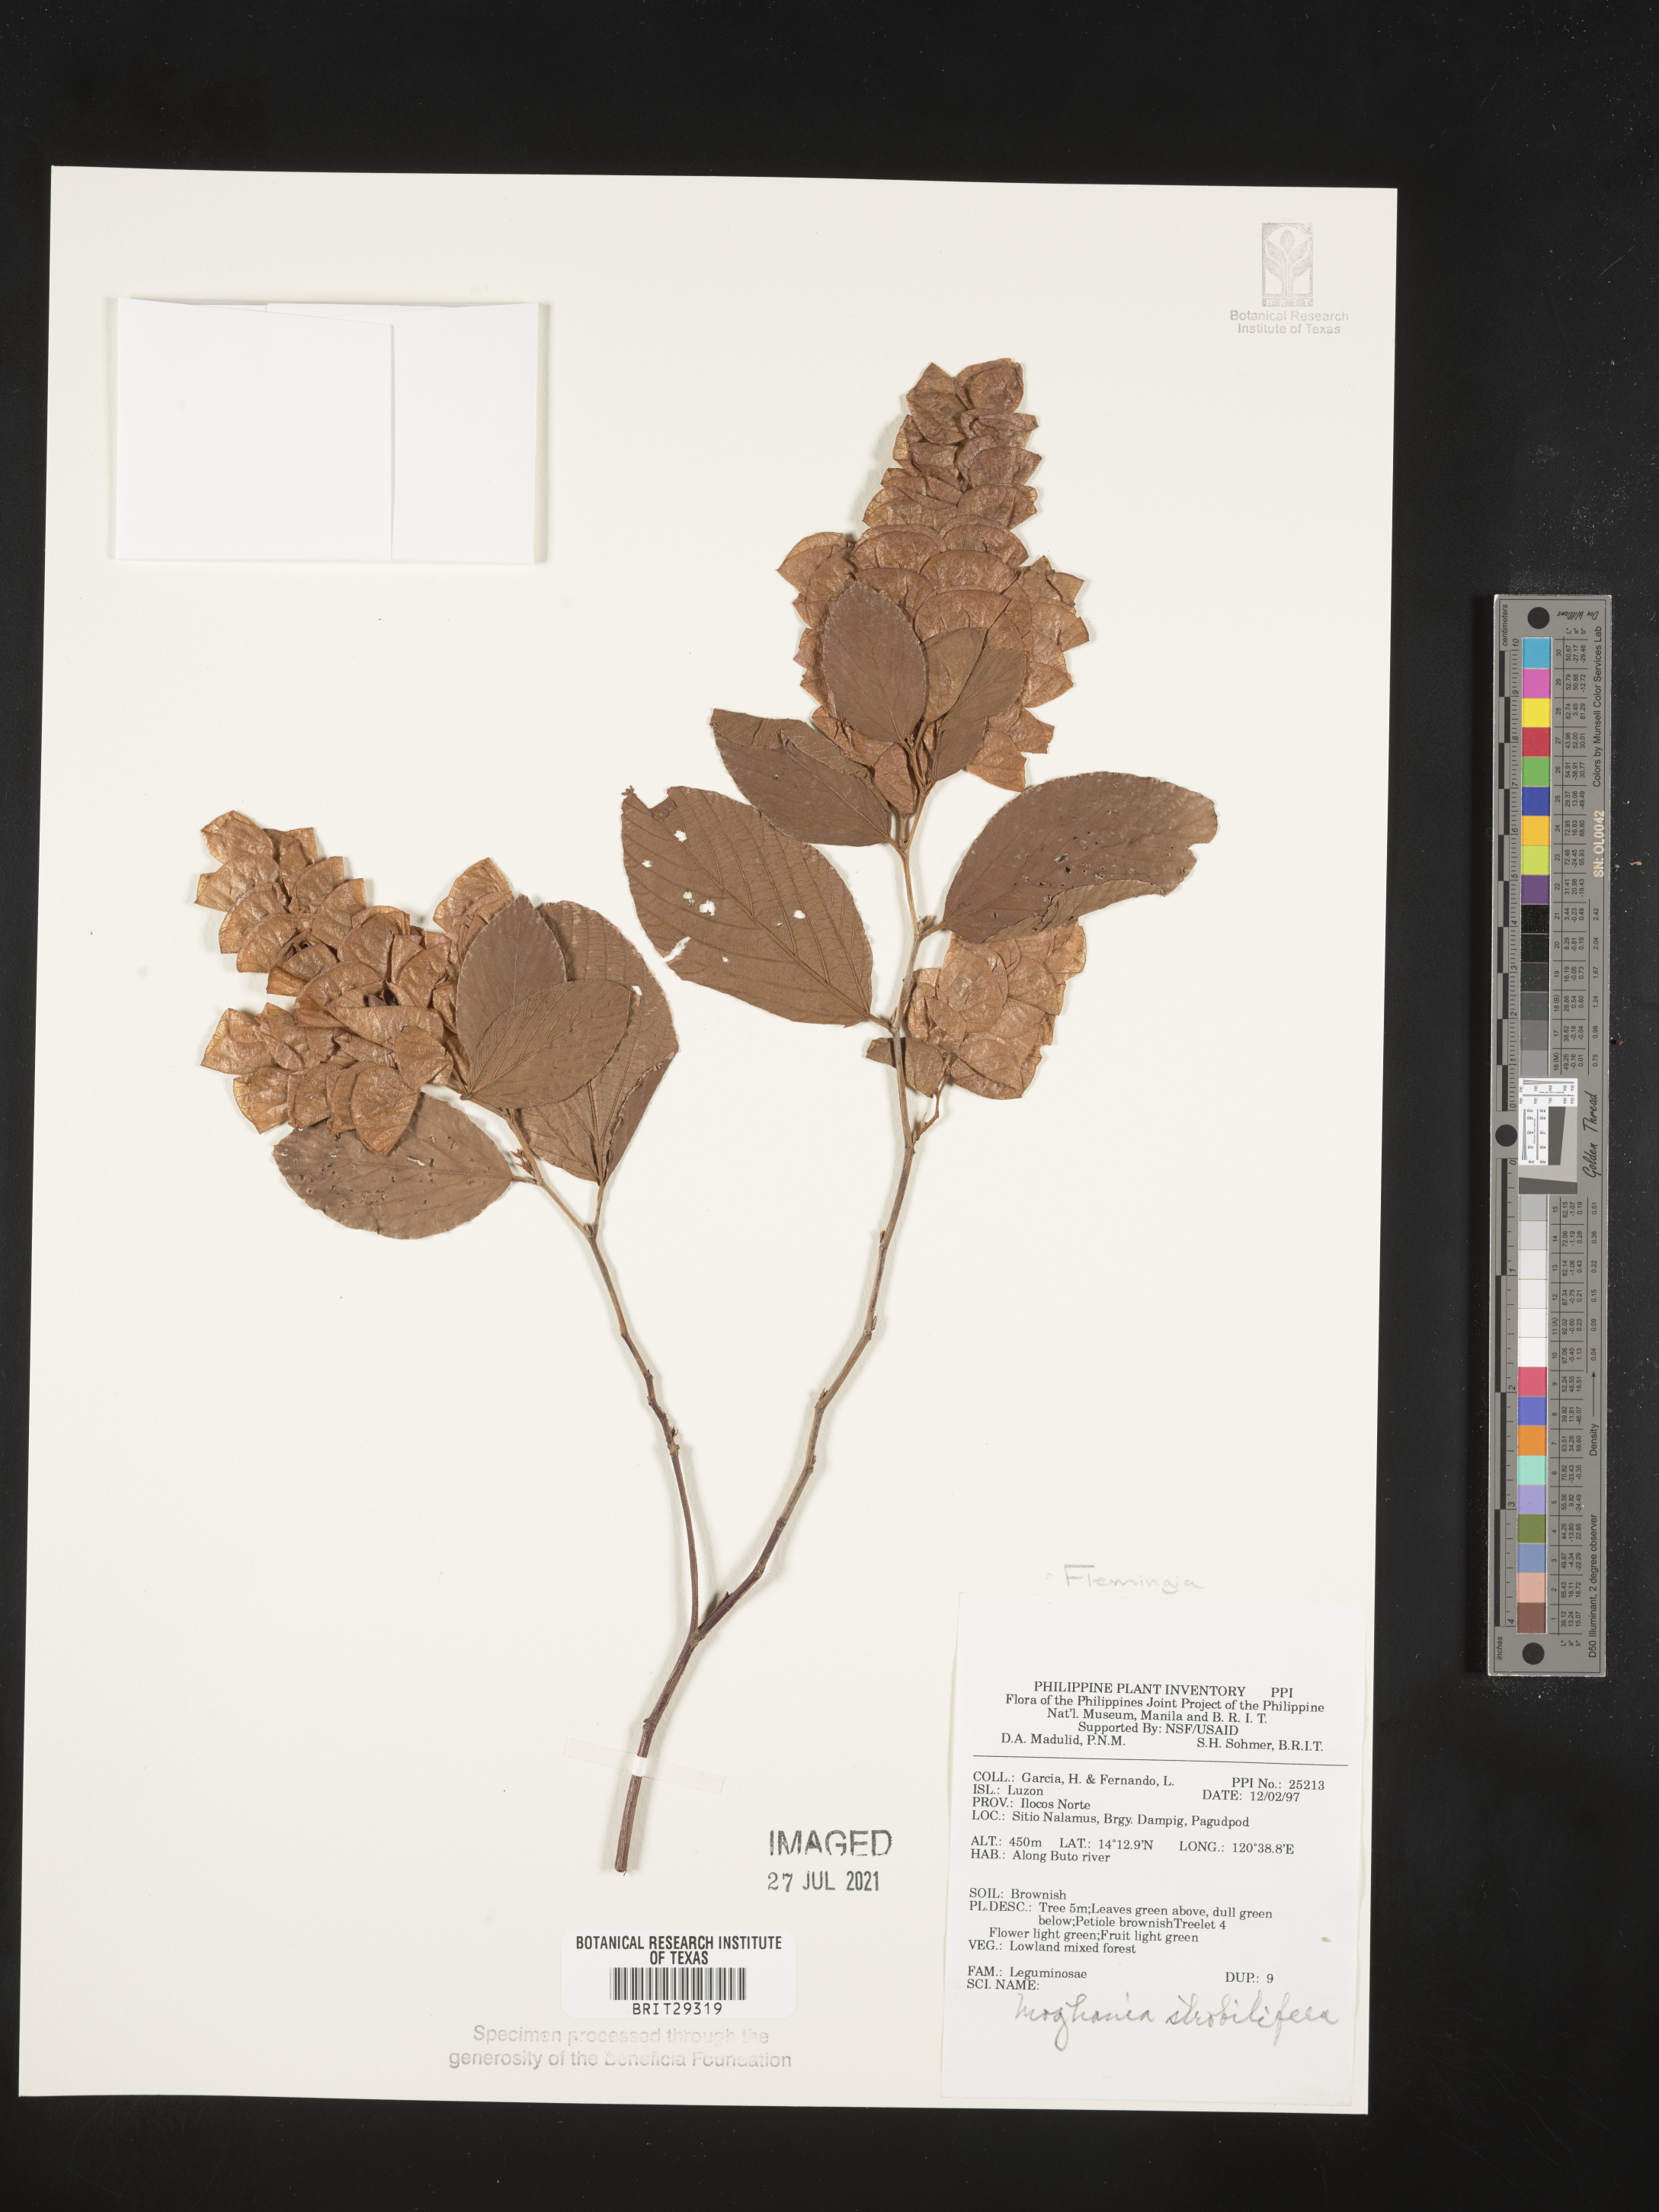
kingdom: Plantae
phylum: Tracheophyta
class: Magnoliopsida
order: Fabales
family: Fabaceae
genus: Flemingia
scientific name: Flemingia
